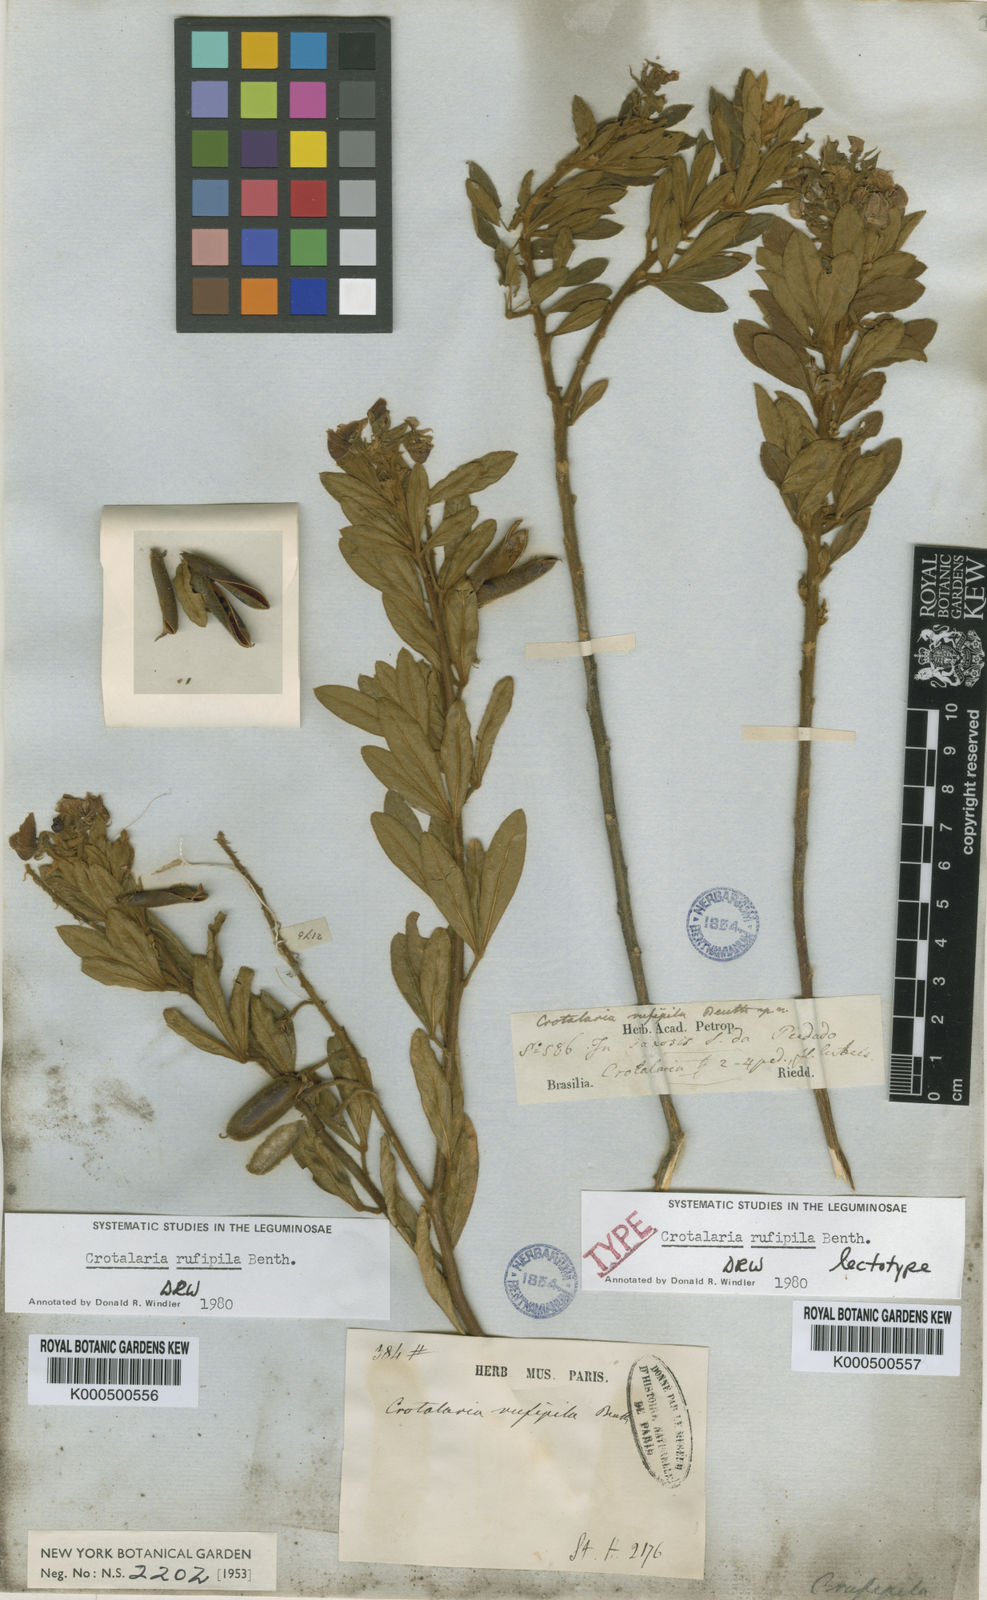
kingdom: Plantae
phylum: Tracheophyta
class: Magnoliopsida
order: Fabales
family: Fabaceae
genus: Crotalaria
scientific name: Crotalaria rufipila
